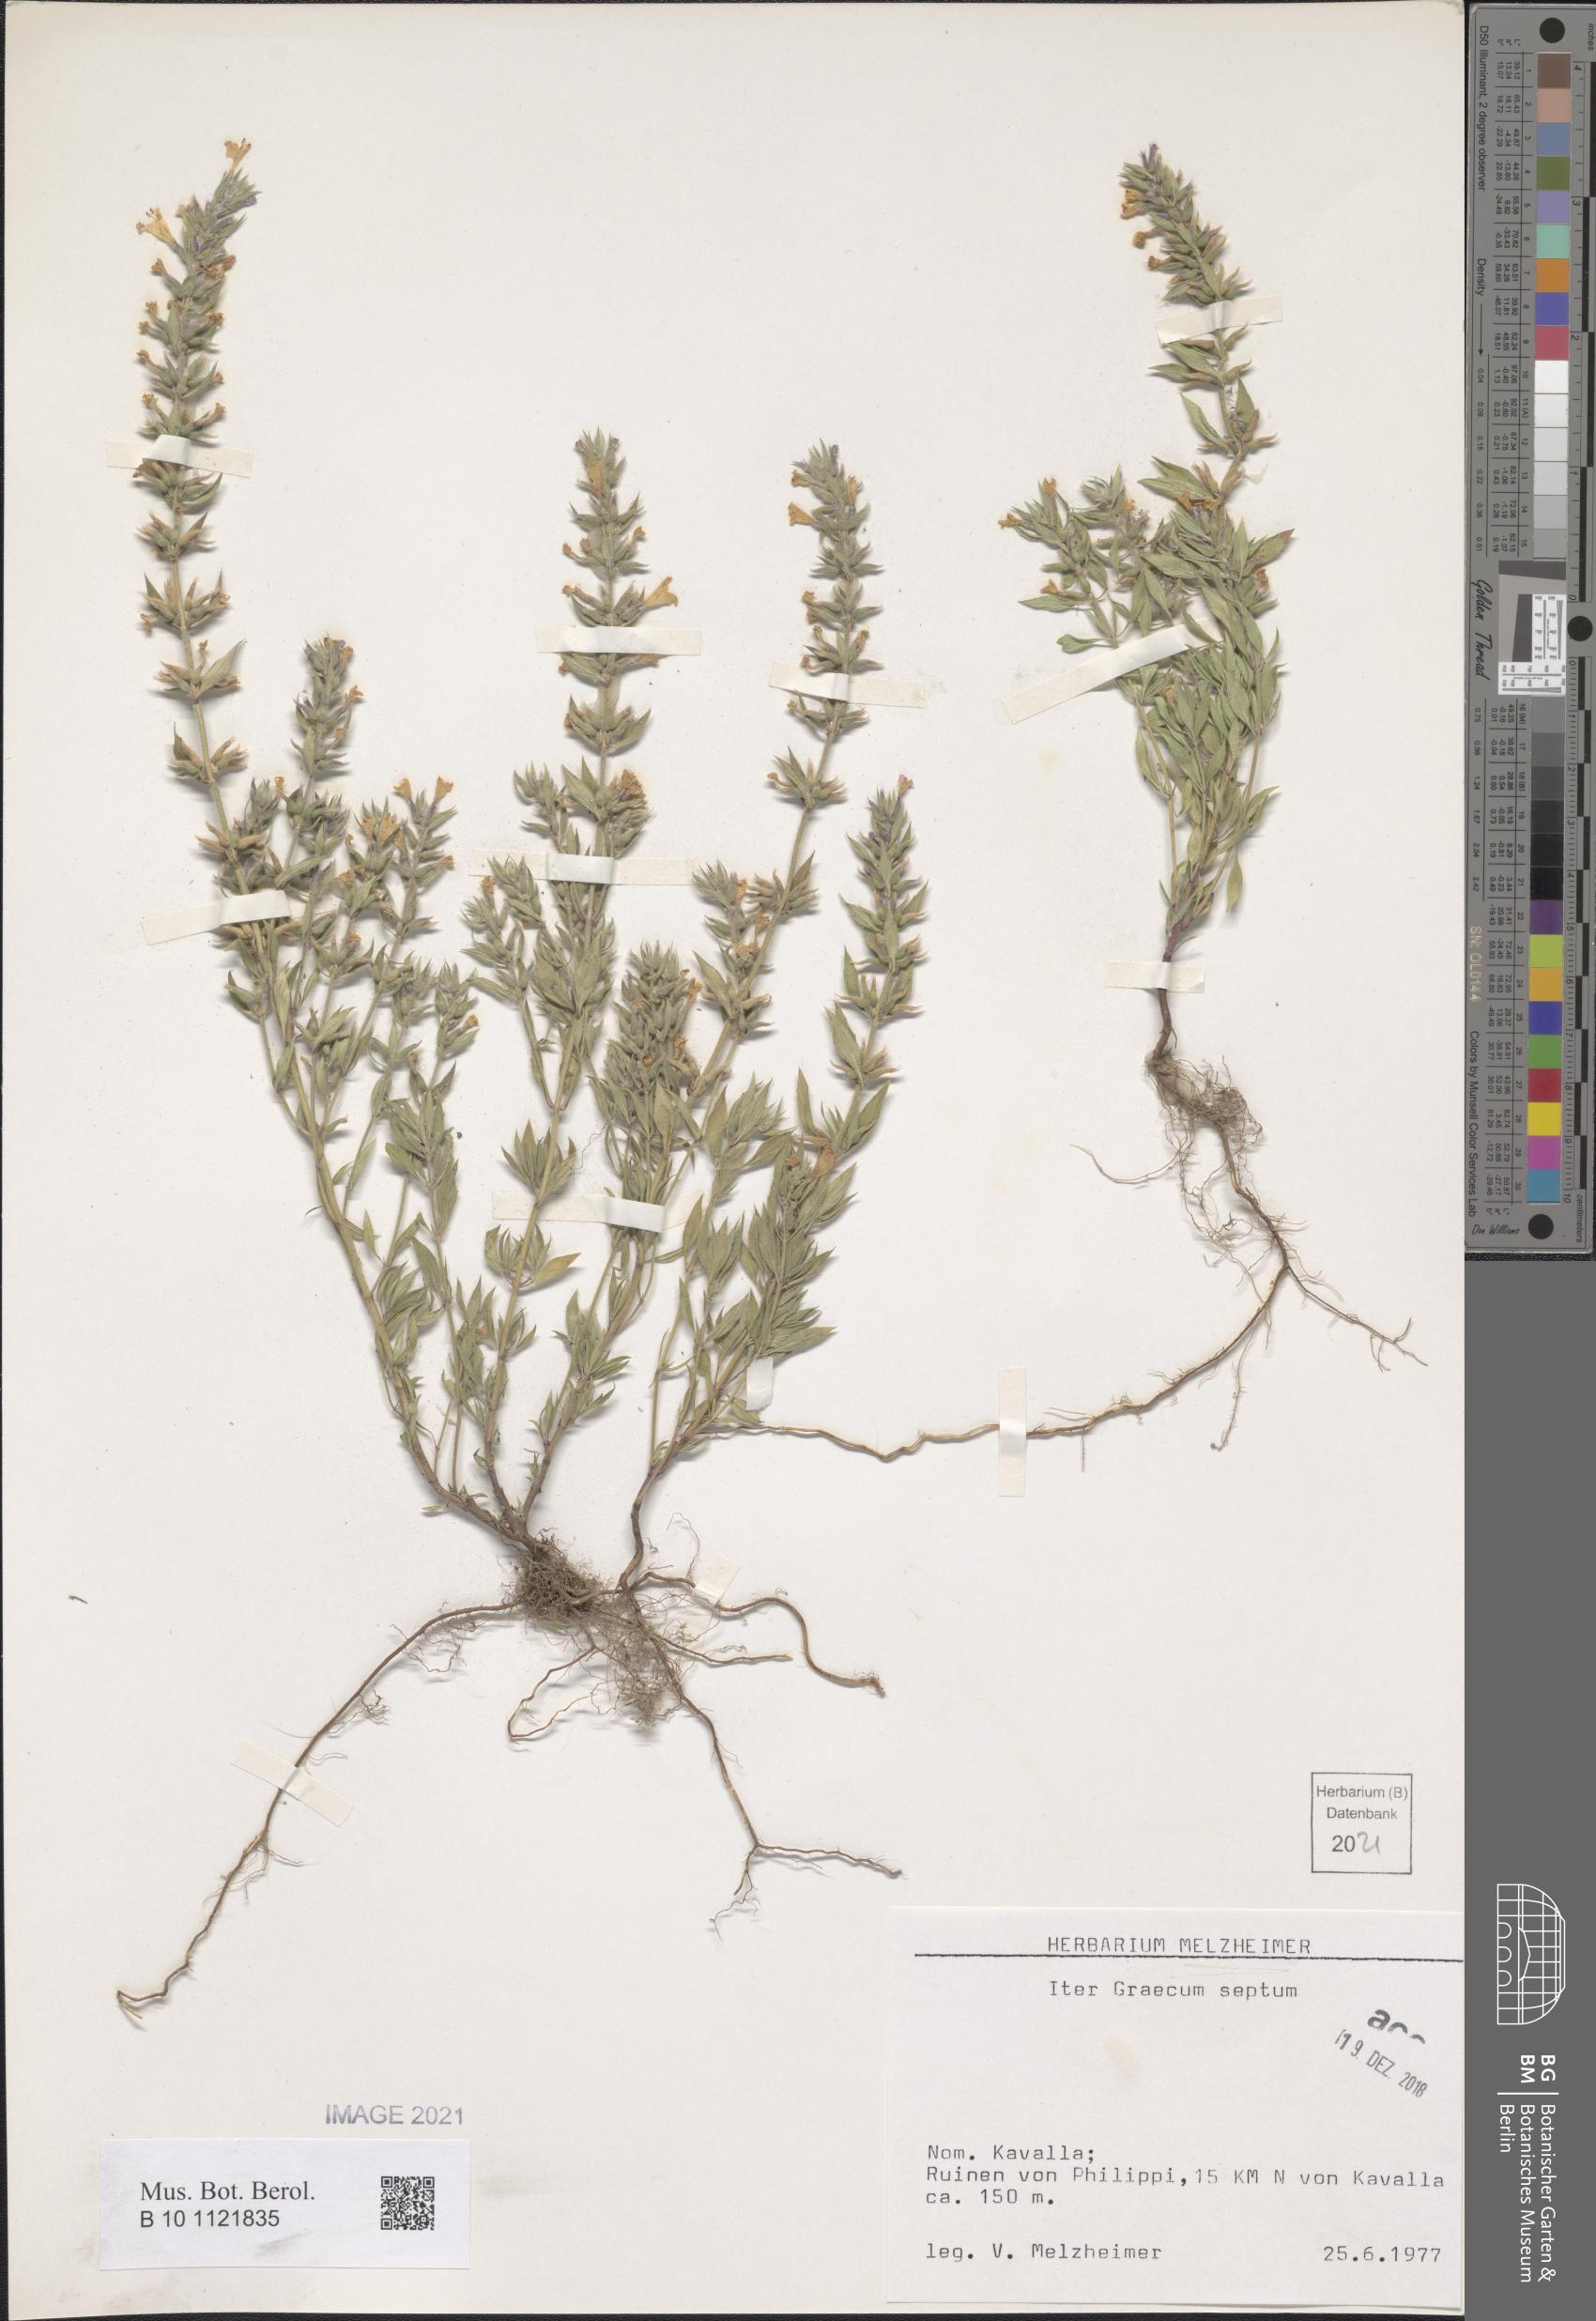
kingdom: Plantae
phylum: Tracheophyta
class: Magnoliopsida
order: Lamiales
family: Lamiaceae
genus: Acinos
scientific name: Acinos
